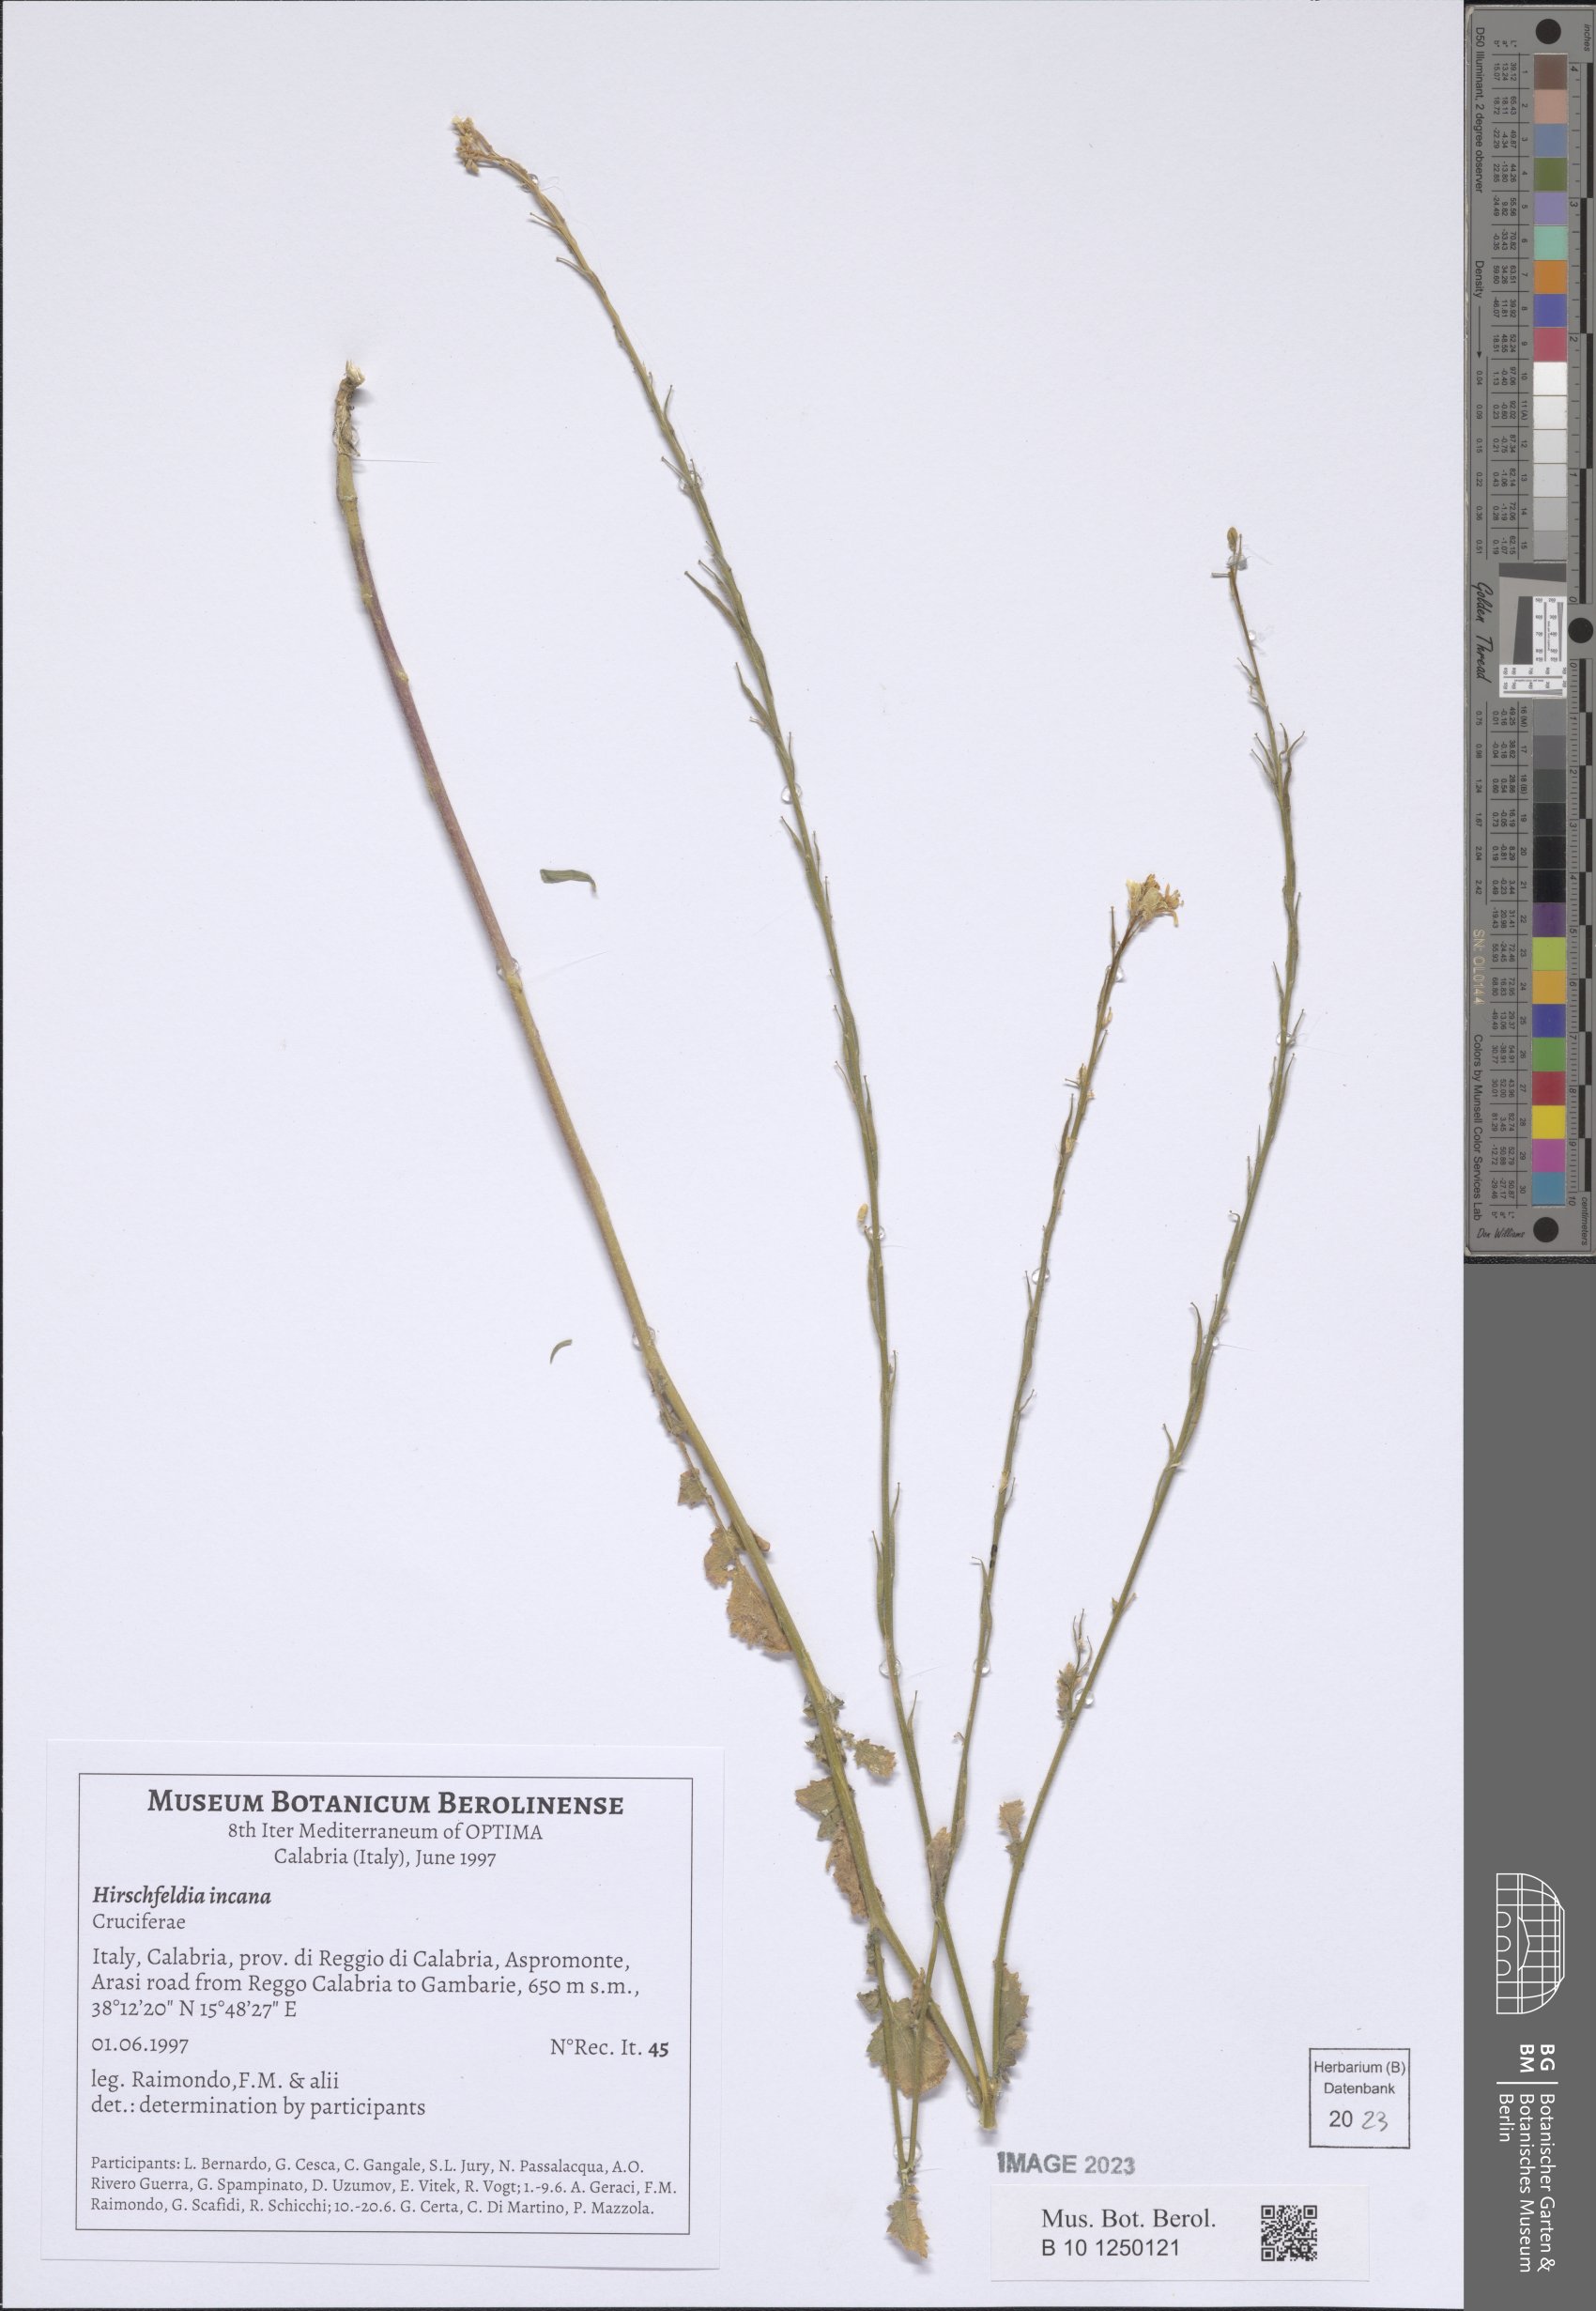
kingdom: Plantae
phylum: Tracheophyta
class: Magnoliopsida
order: Brassicales
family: Brassicaceae
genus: Hirschfeldia
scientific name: Hirschfeldia incana
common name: Hoary mustard
